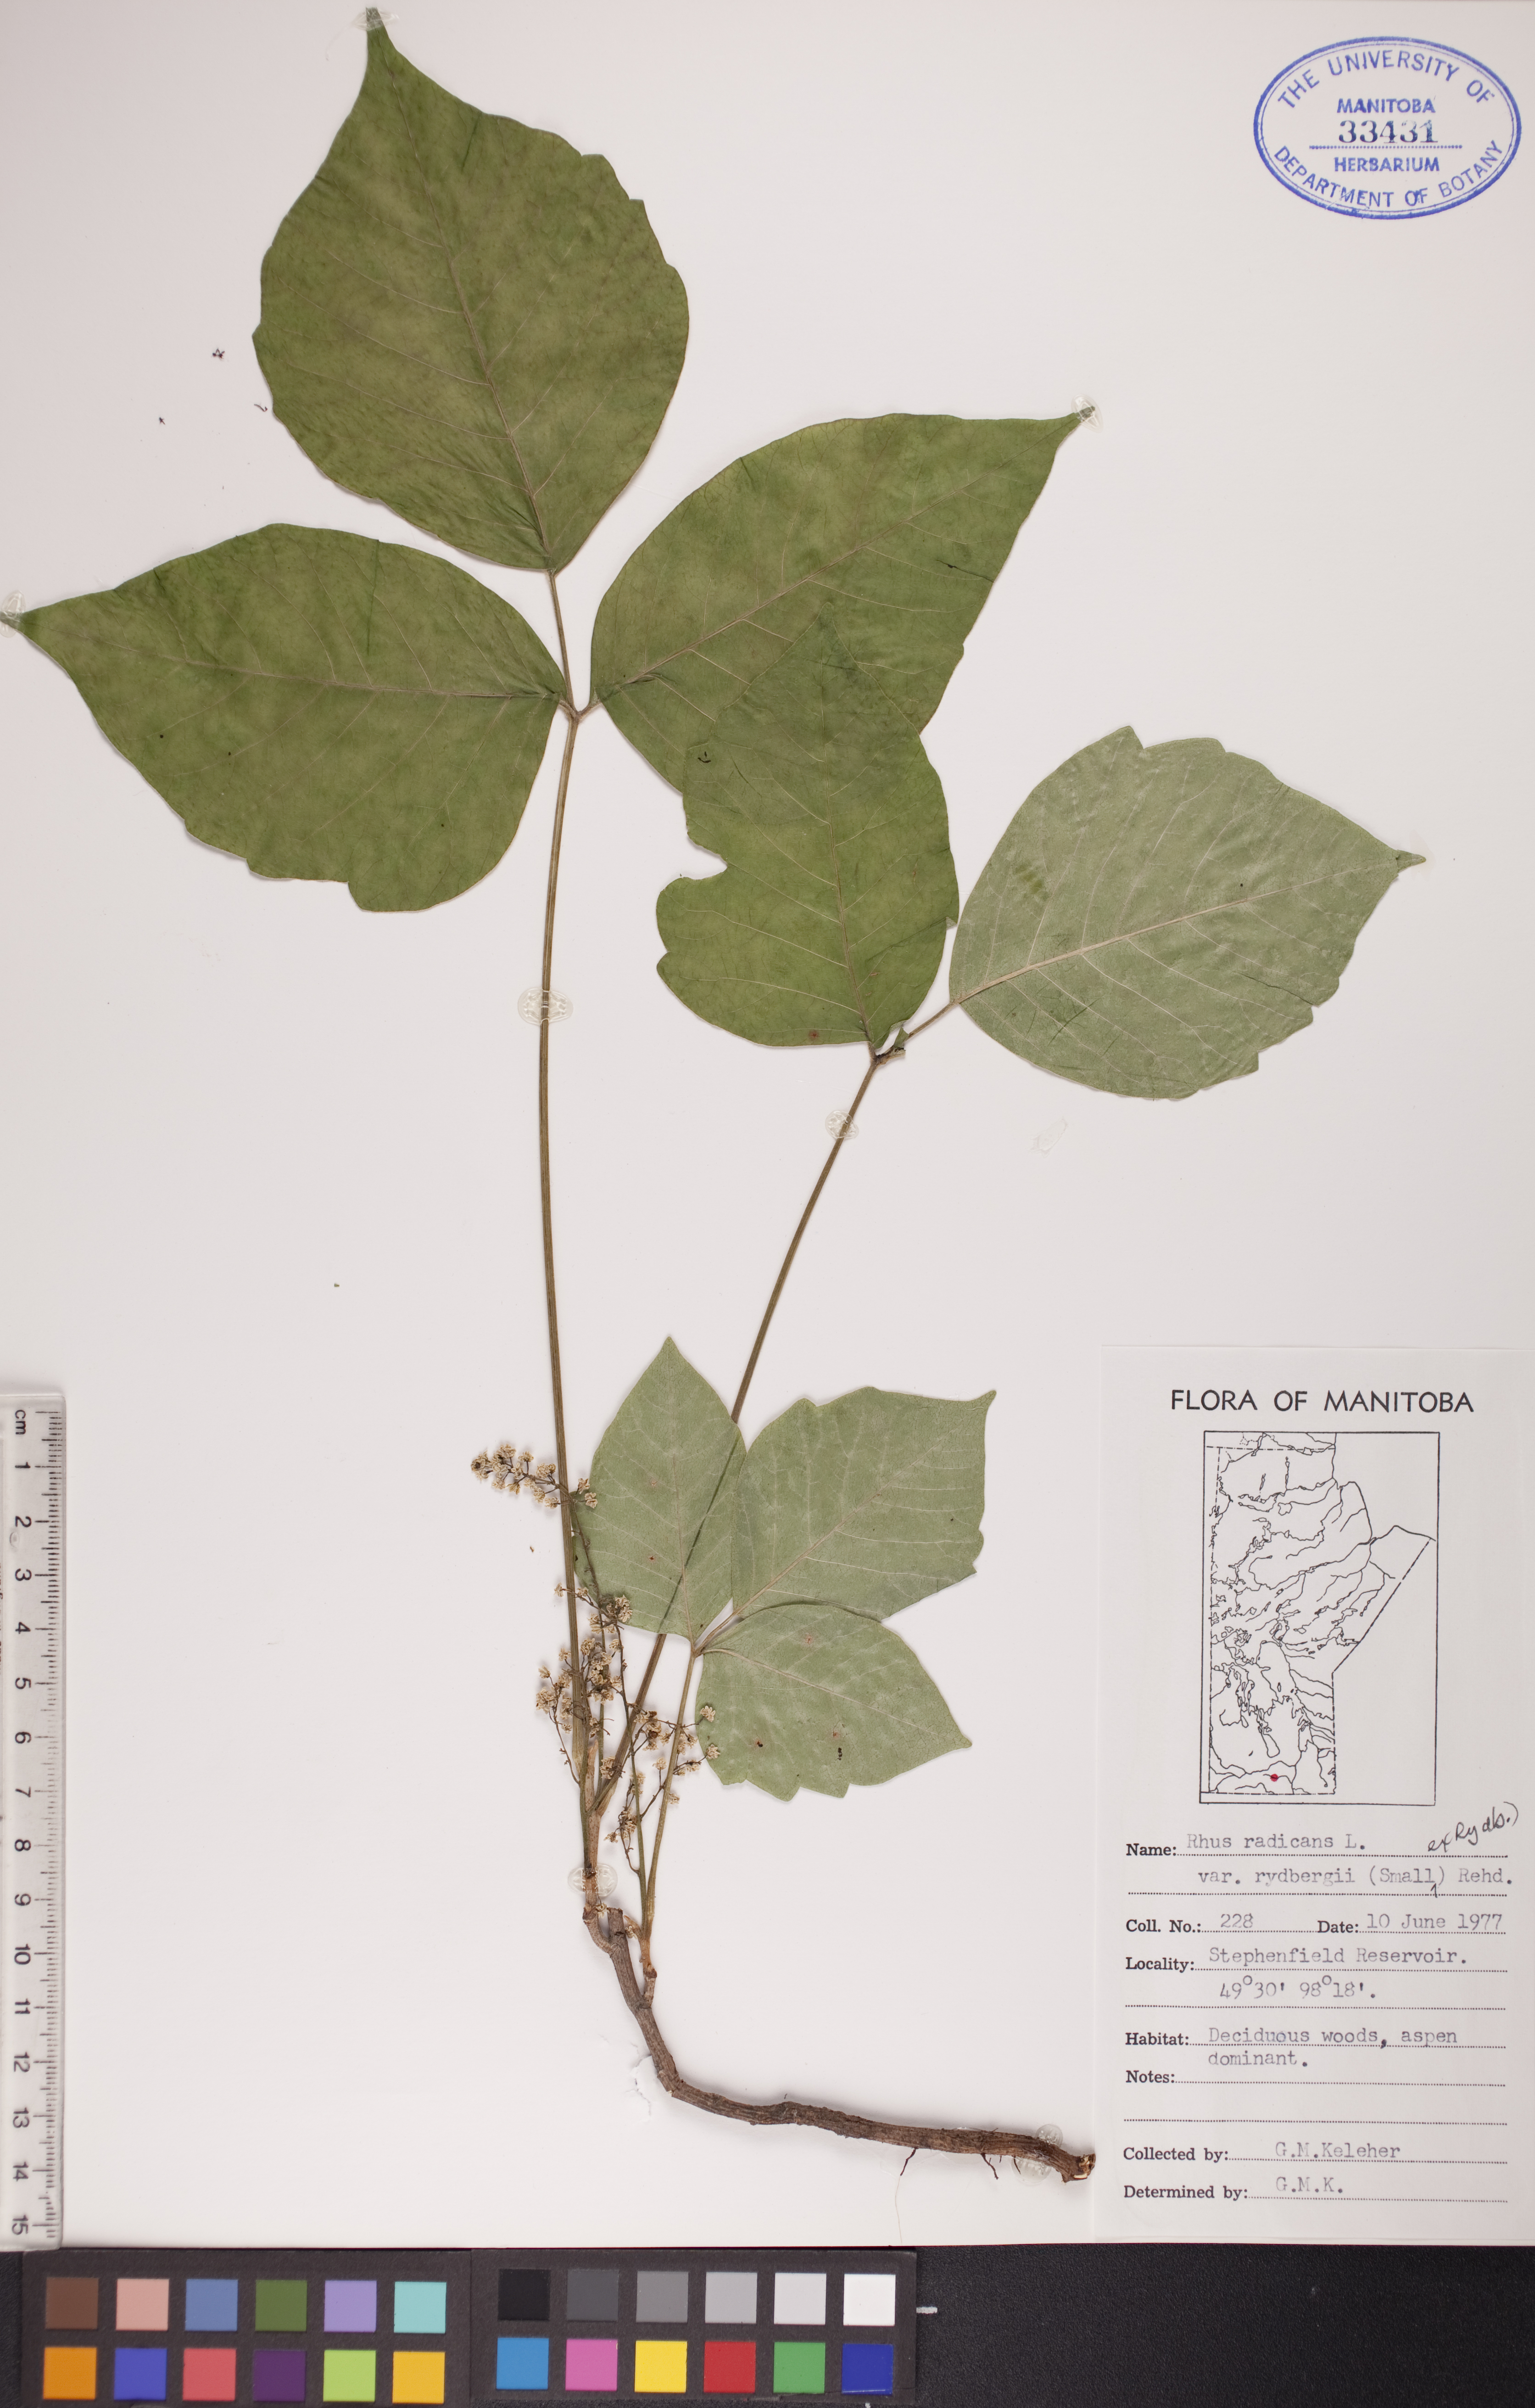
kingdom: Plantae
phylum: Tracheophyta
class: Magnoliopsida
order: Sapindales
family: Anacardiaceae
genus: Toxicodendron
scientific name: Toxicodendron rydbergii
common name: Rydberg's poison-ivy
